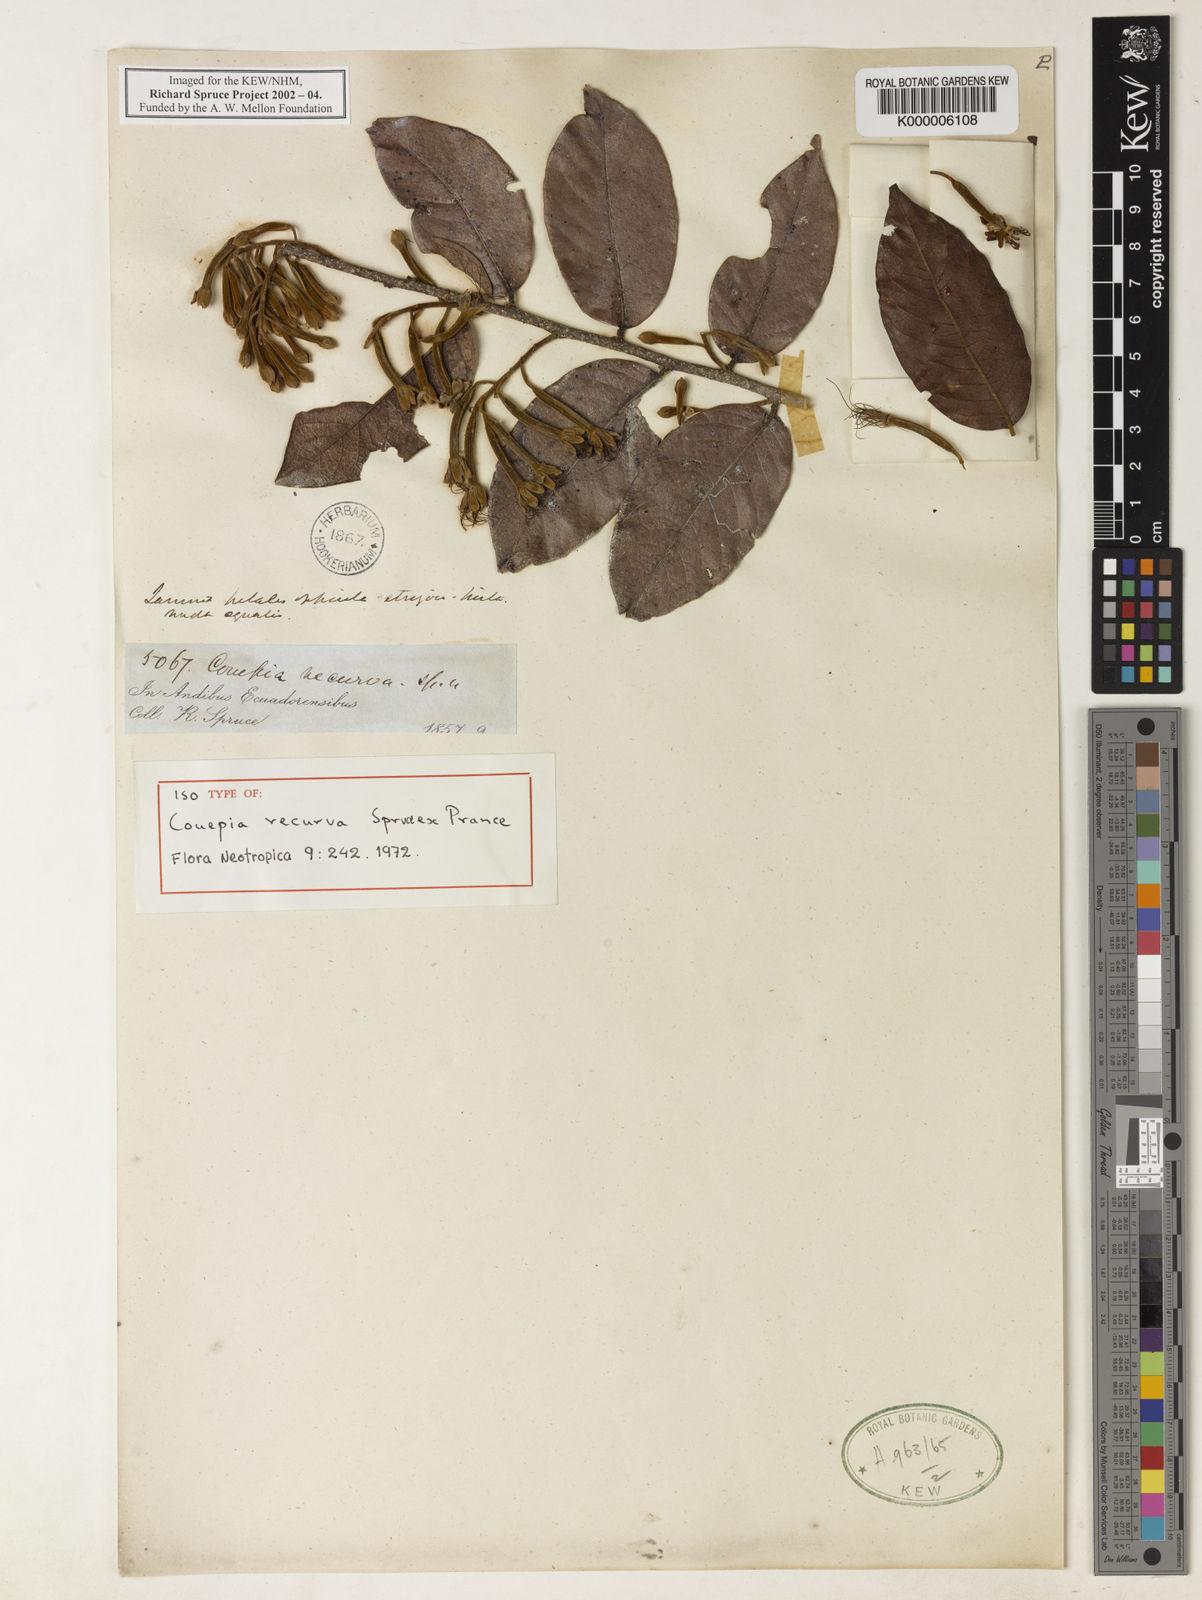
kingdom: Plantae
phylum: Tracheophyta
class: Magnoliopsida
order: Malpighiales
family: Chrysobalanaceae
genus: Hirtella
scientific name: Hirtella recurva
